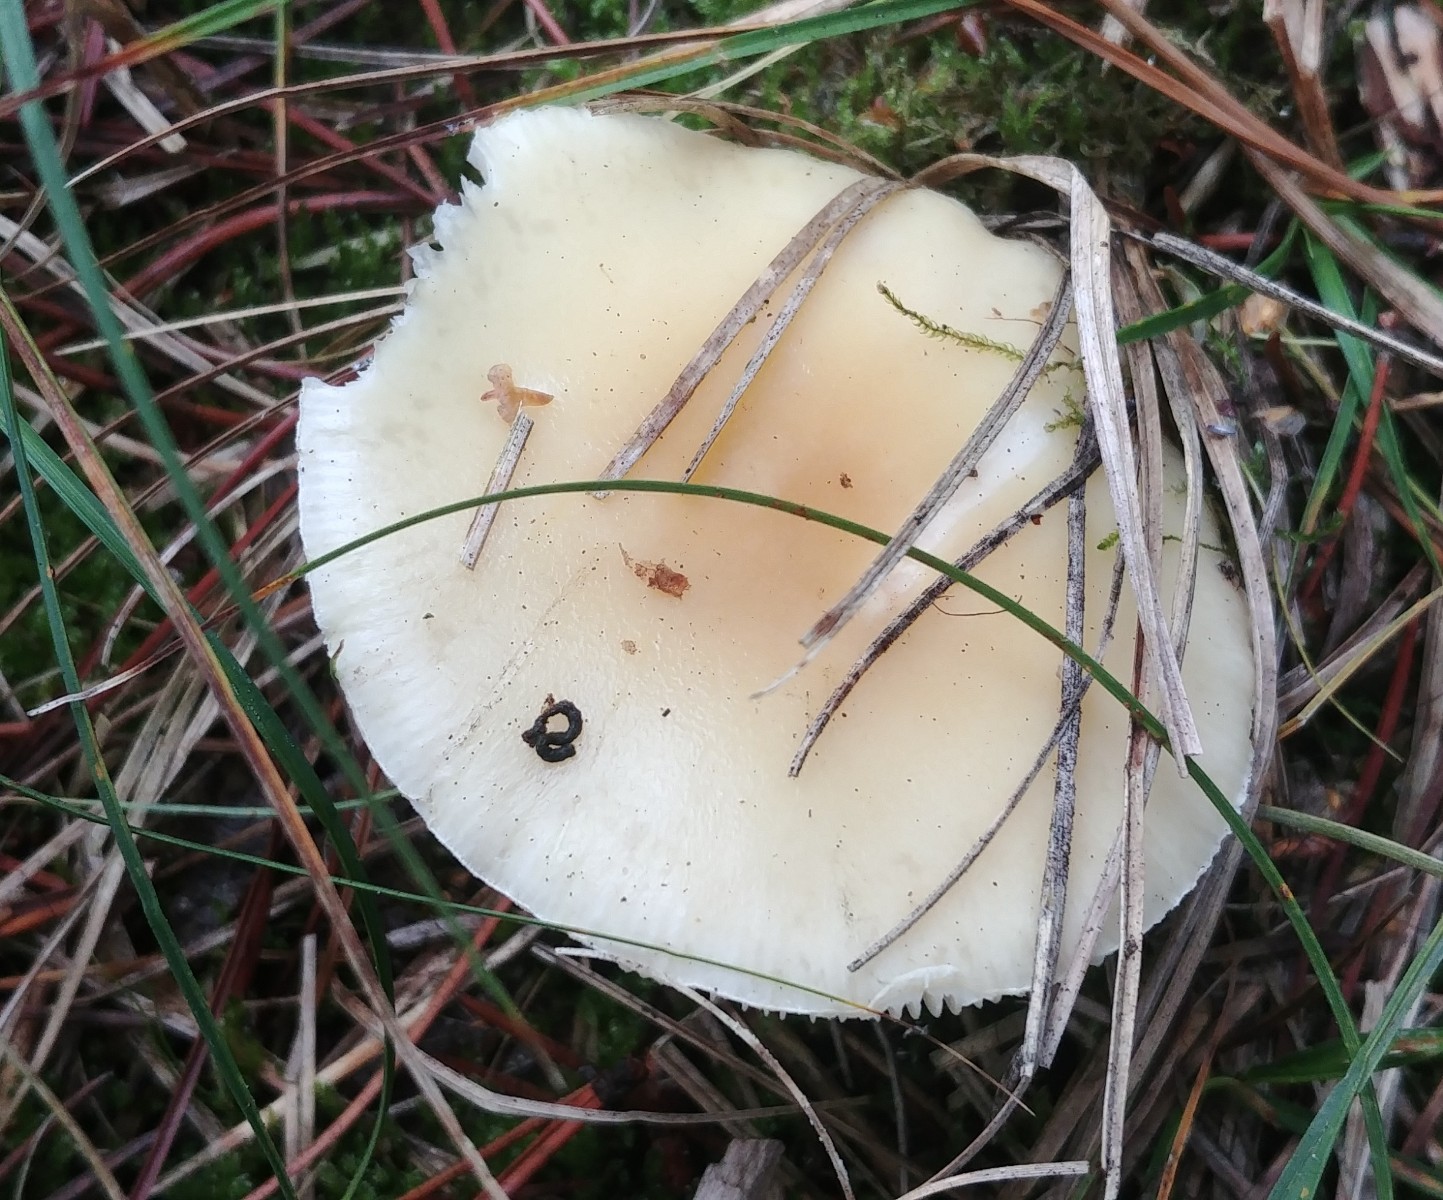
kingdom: Fungi
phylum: Basidiomycota
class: Agaricomycetes
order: Agaricales
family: Amanitaceae
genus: Amanita
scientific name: Amanita gemmata
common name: okkergul fluesvamp
